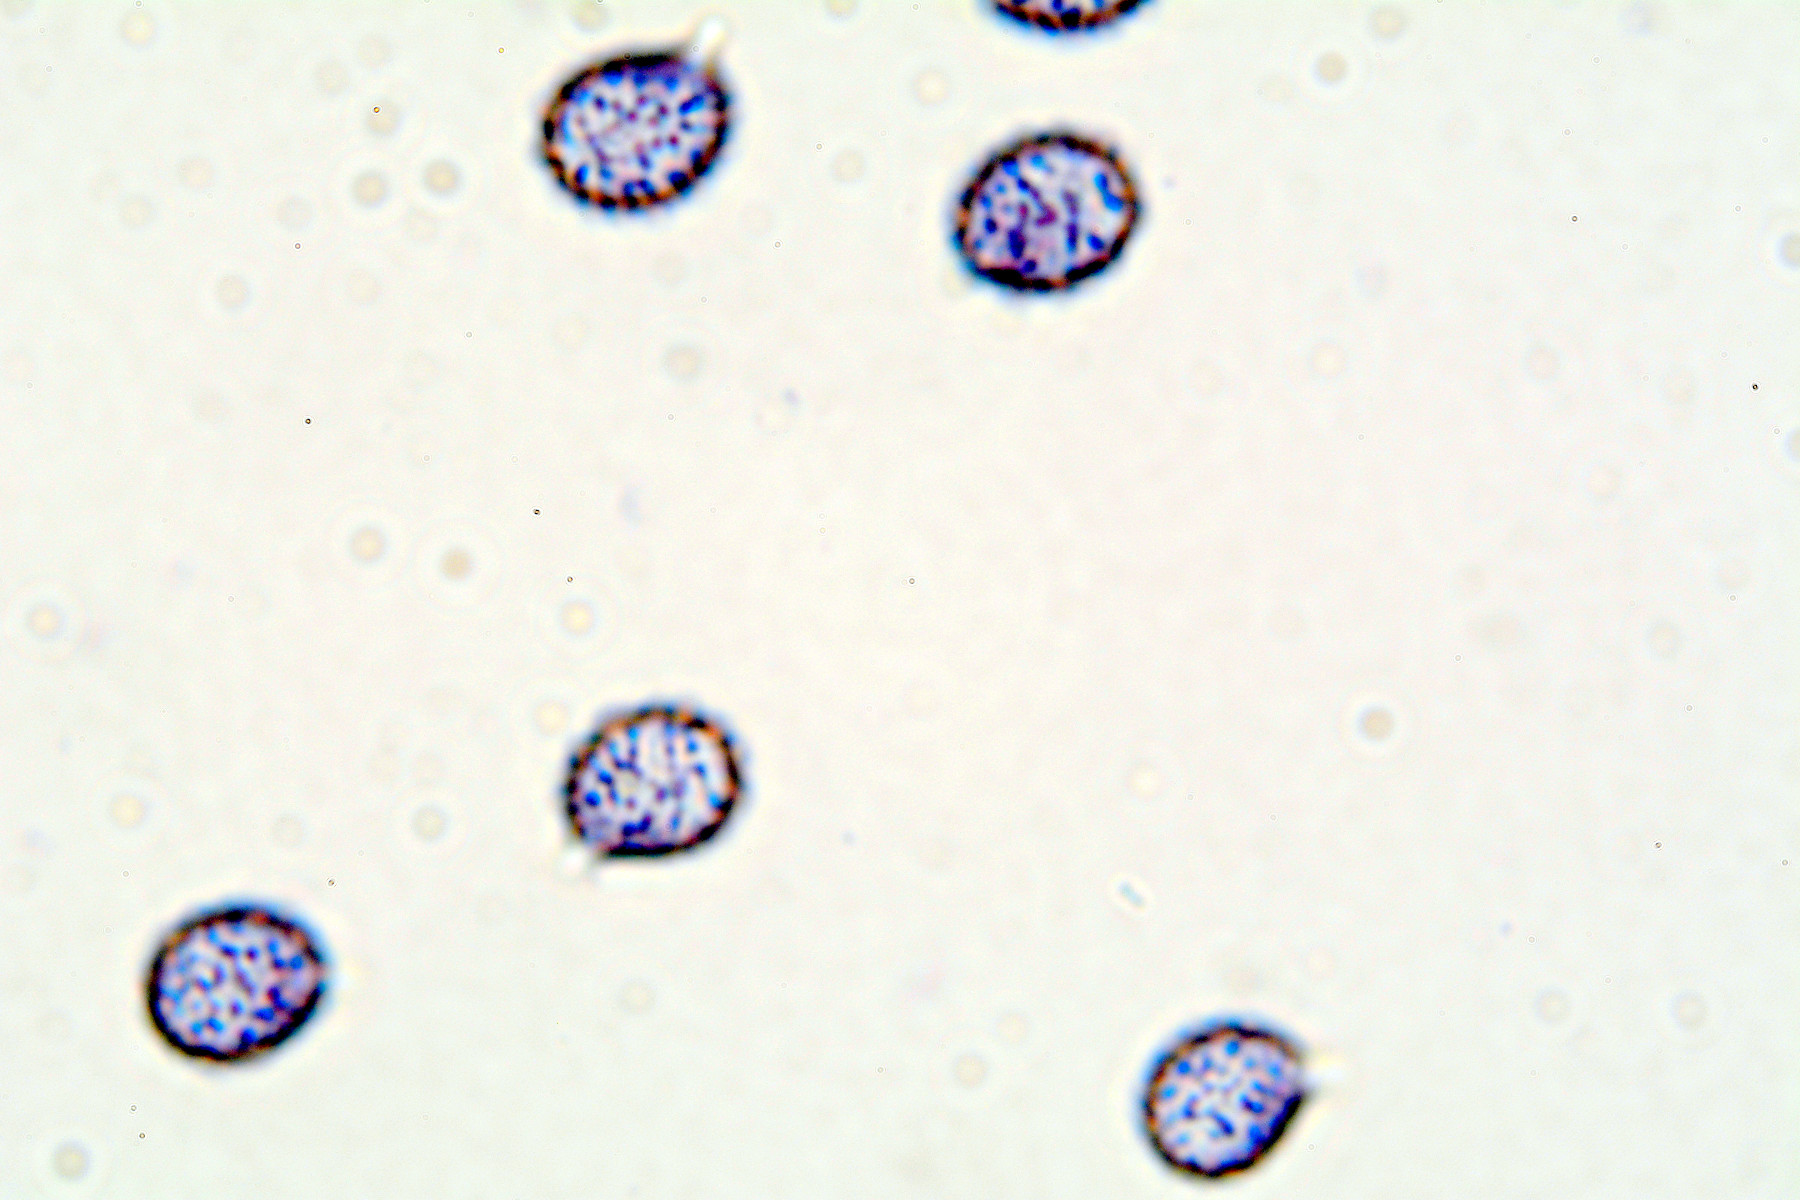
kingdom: Fungi
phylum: Basidiomycota
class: Agaricomycetes
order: Russulales
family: Russulaceae
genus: Russula
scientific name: Russula
